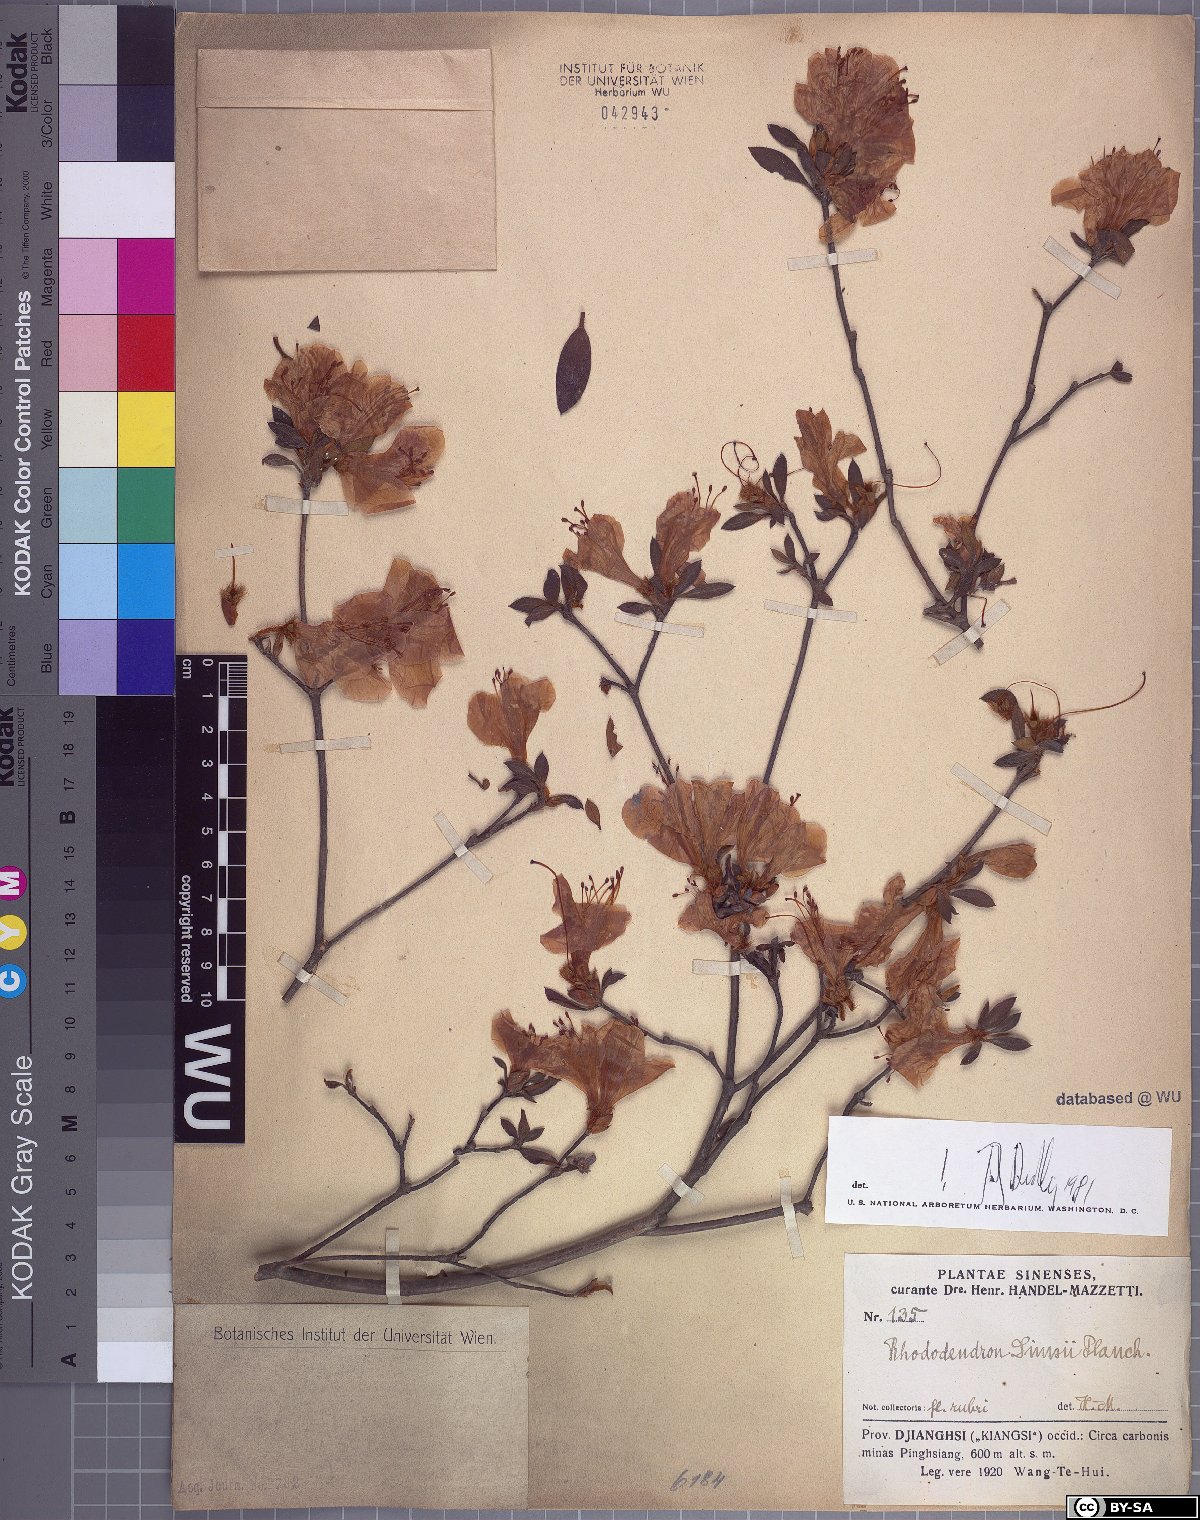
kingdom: Plantae
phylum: Tracheophyta
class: Magnoliopsida
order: Ericales
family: Ericaceae
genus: Rhododendron
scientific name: Rhododendron simsii
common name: Rhododendron
